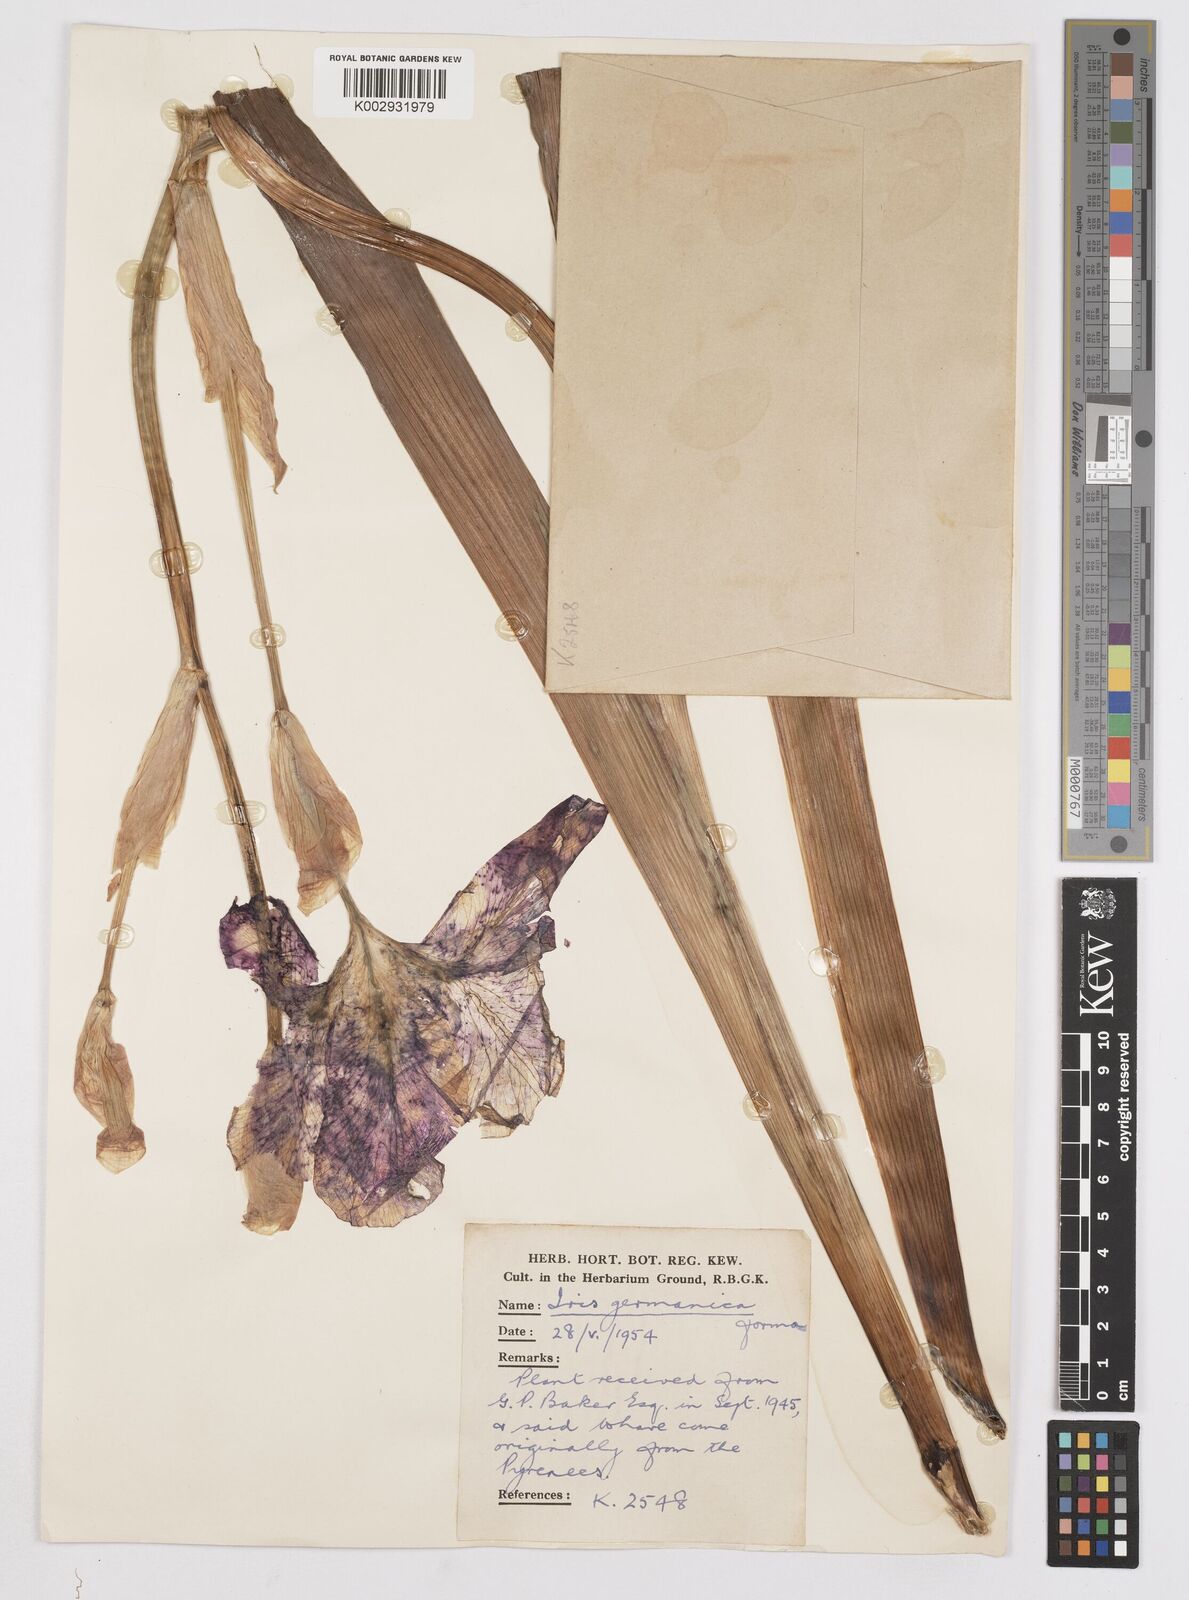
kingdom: Plantae
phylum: Tracheophyta
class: Liliopsida
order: Asparagales
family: Iridaceae
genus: Iris
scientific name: Iris
